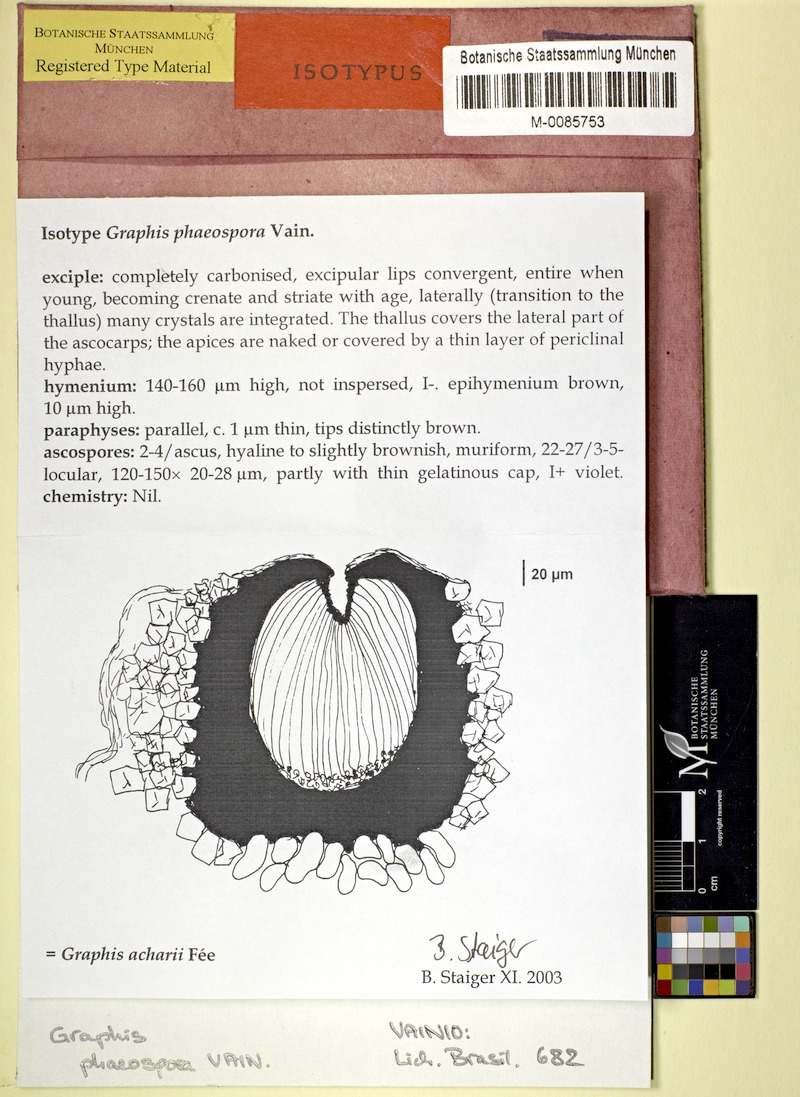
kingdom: Fungi
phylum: Ascomycota
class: Lecanoromycetes
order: Ostropales
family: Graphidaceae
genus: Allographa
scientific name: Allographa acharii
